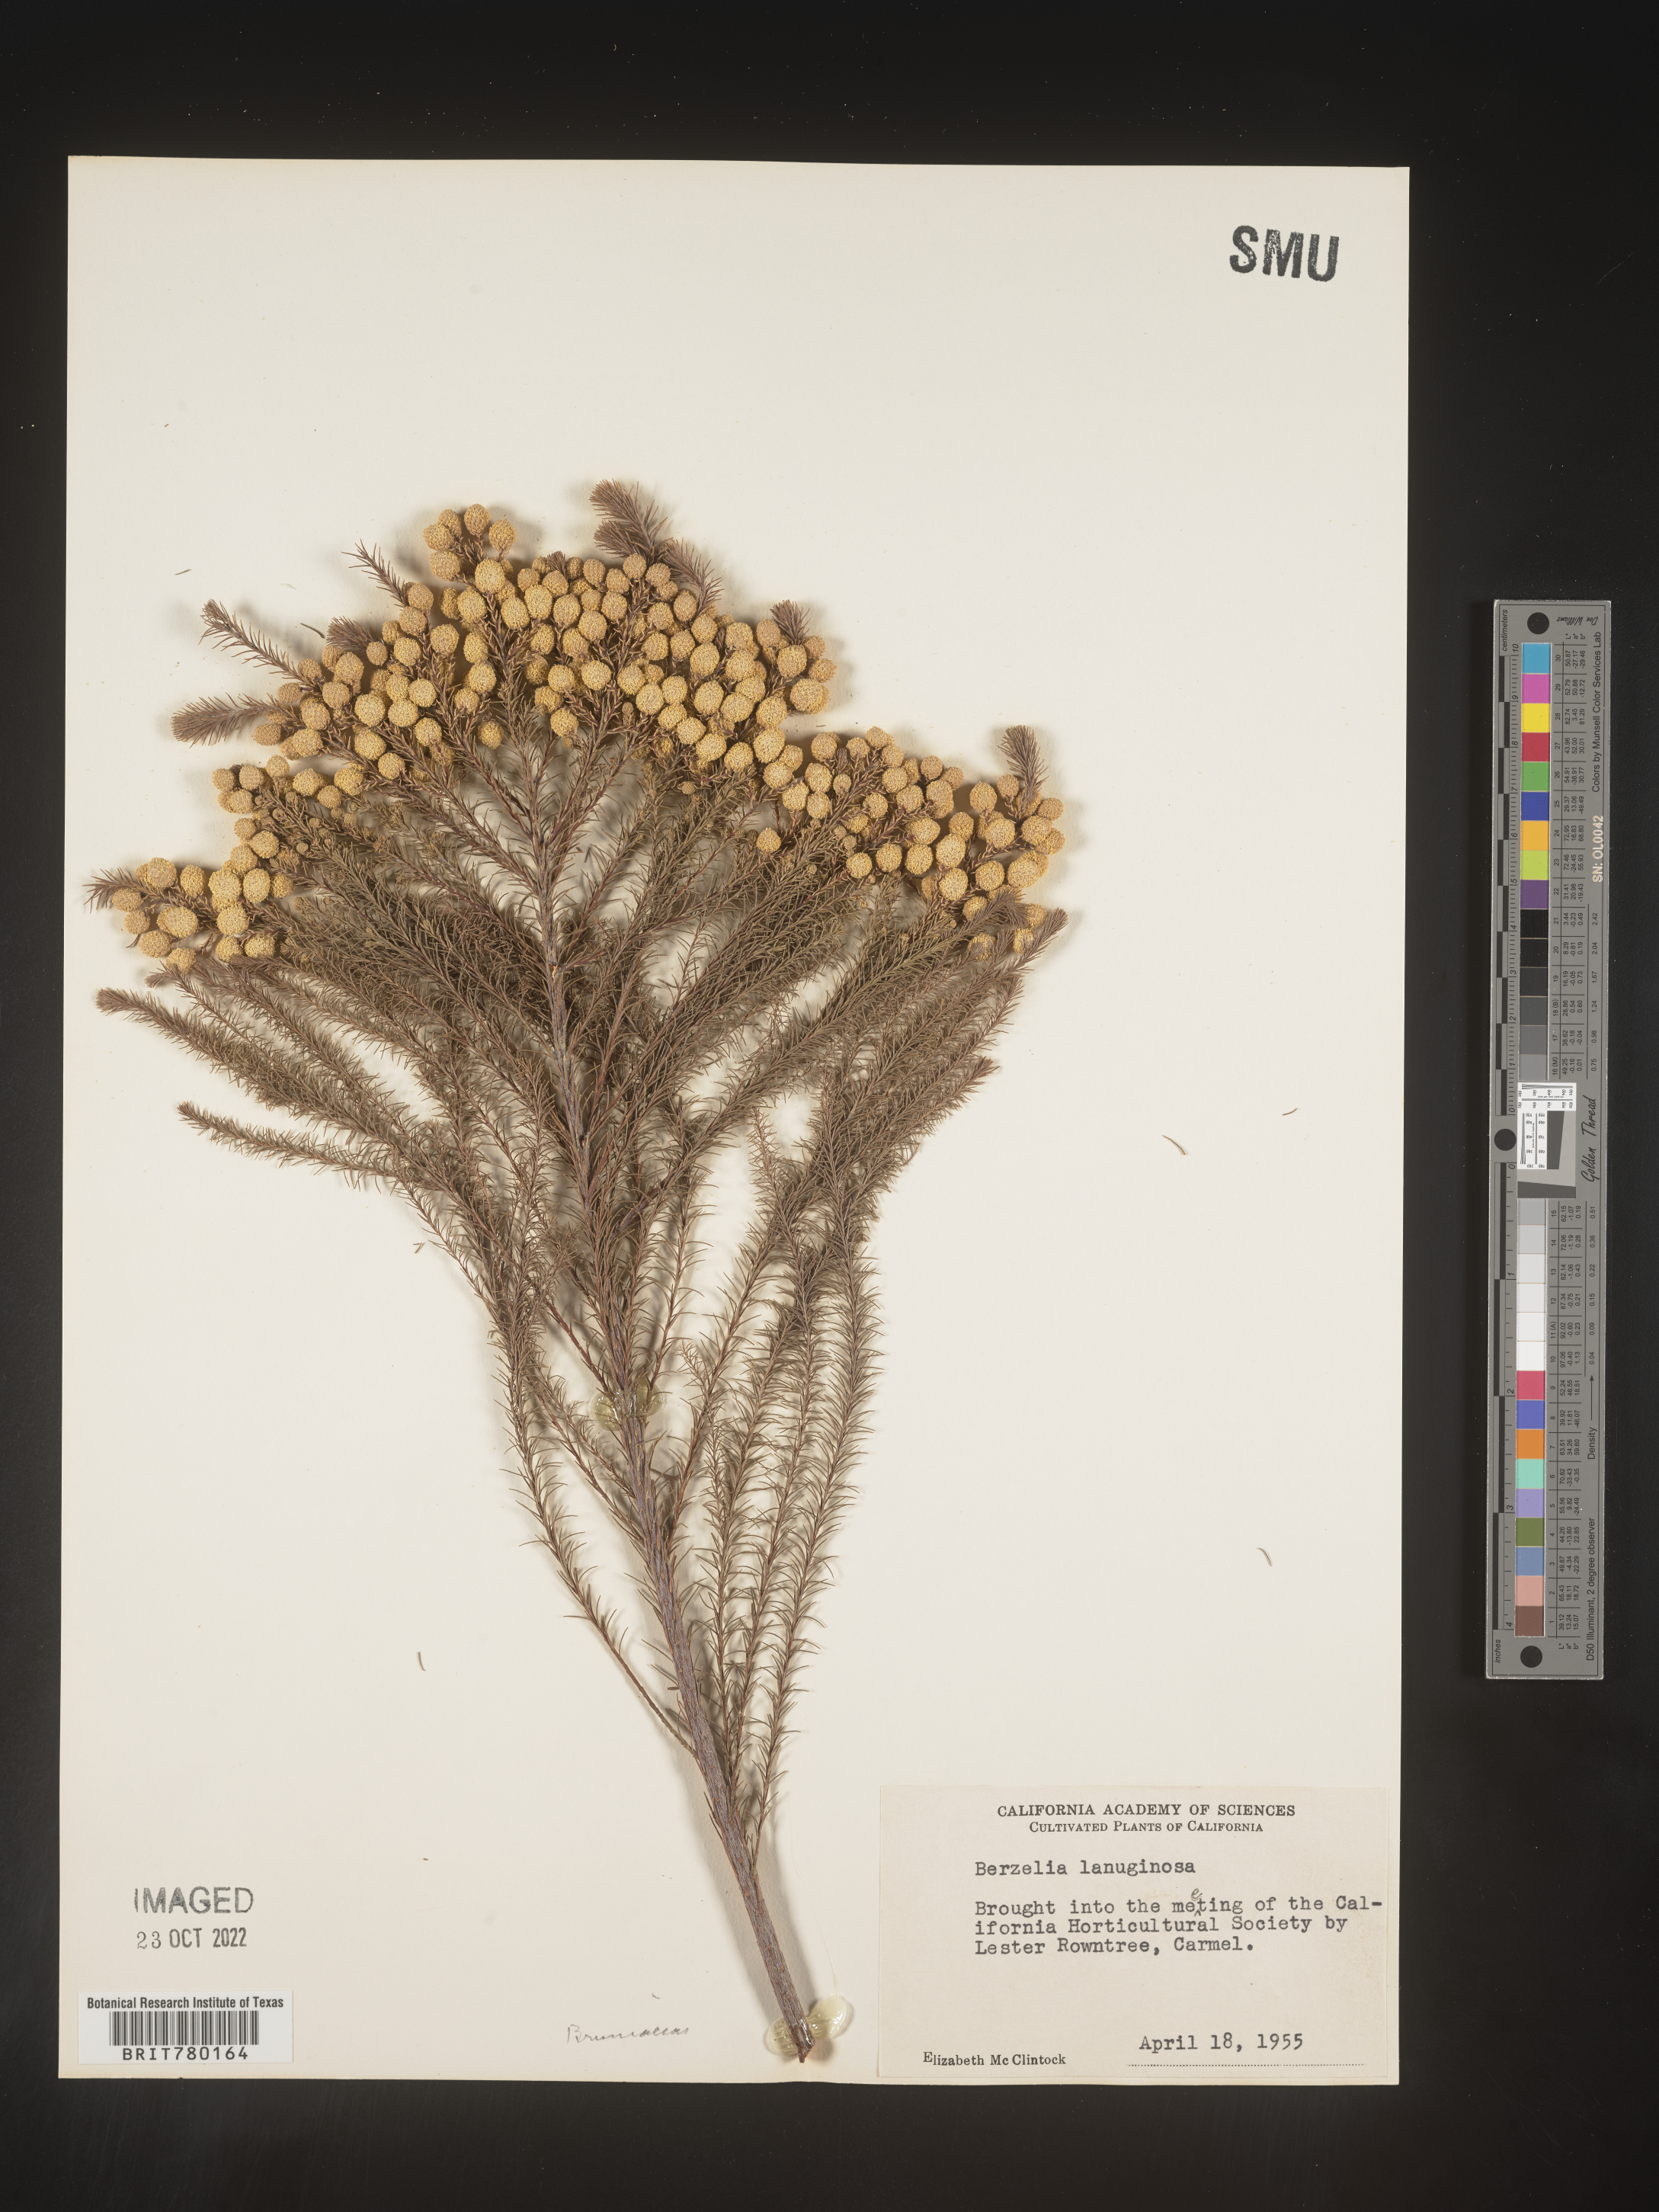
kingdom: Plantae
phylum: Tracheophyta
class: Magnoliopsida
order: Bruniales
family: Bruniaceae
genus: Berzelia
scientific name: Berzelia
